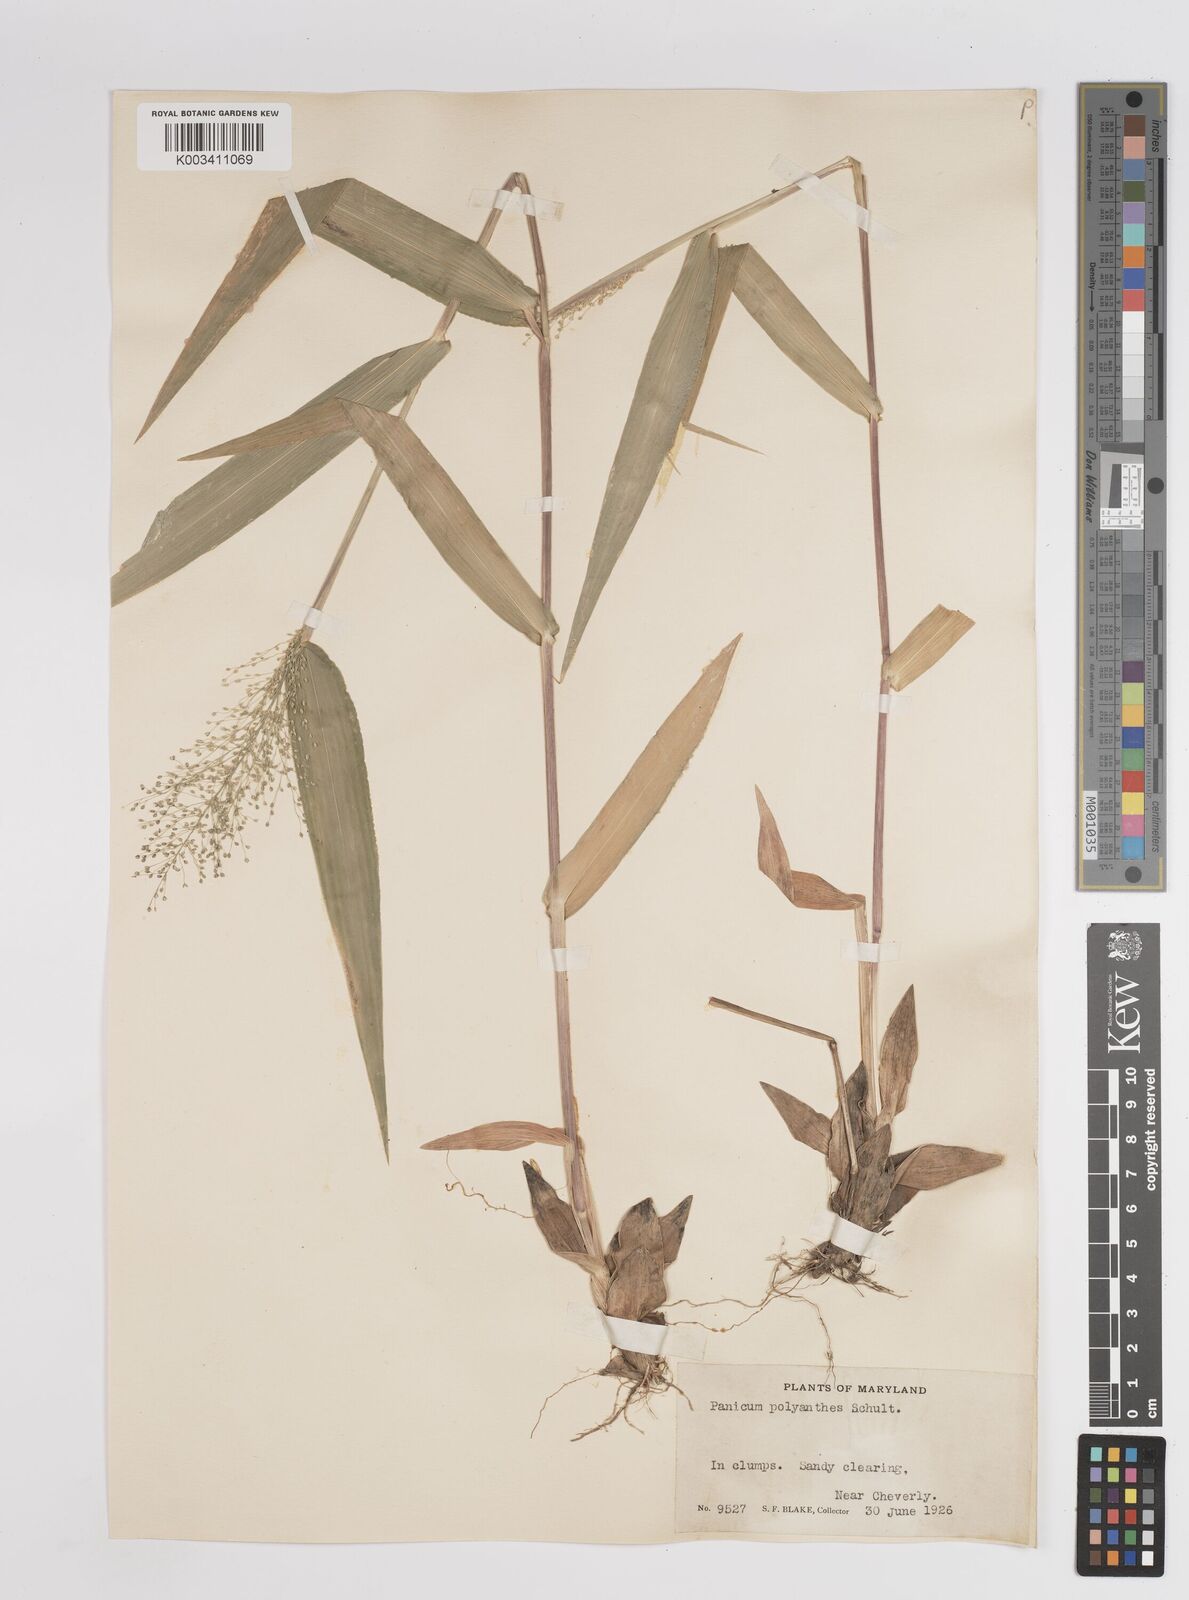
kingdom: Plantae
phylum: Tracheophyta
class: Liliopsida
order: Poales
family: Poaceae
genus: Dichanthelium
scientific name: Dichanthelium polyanthes
